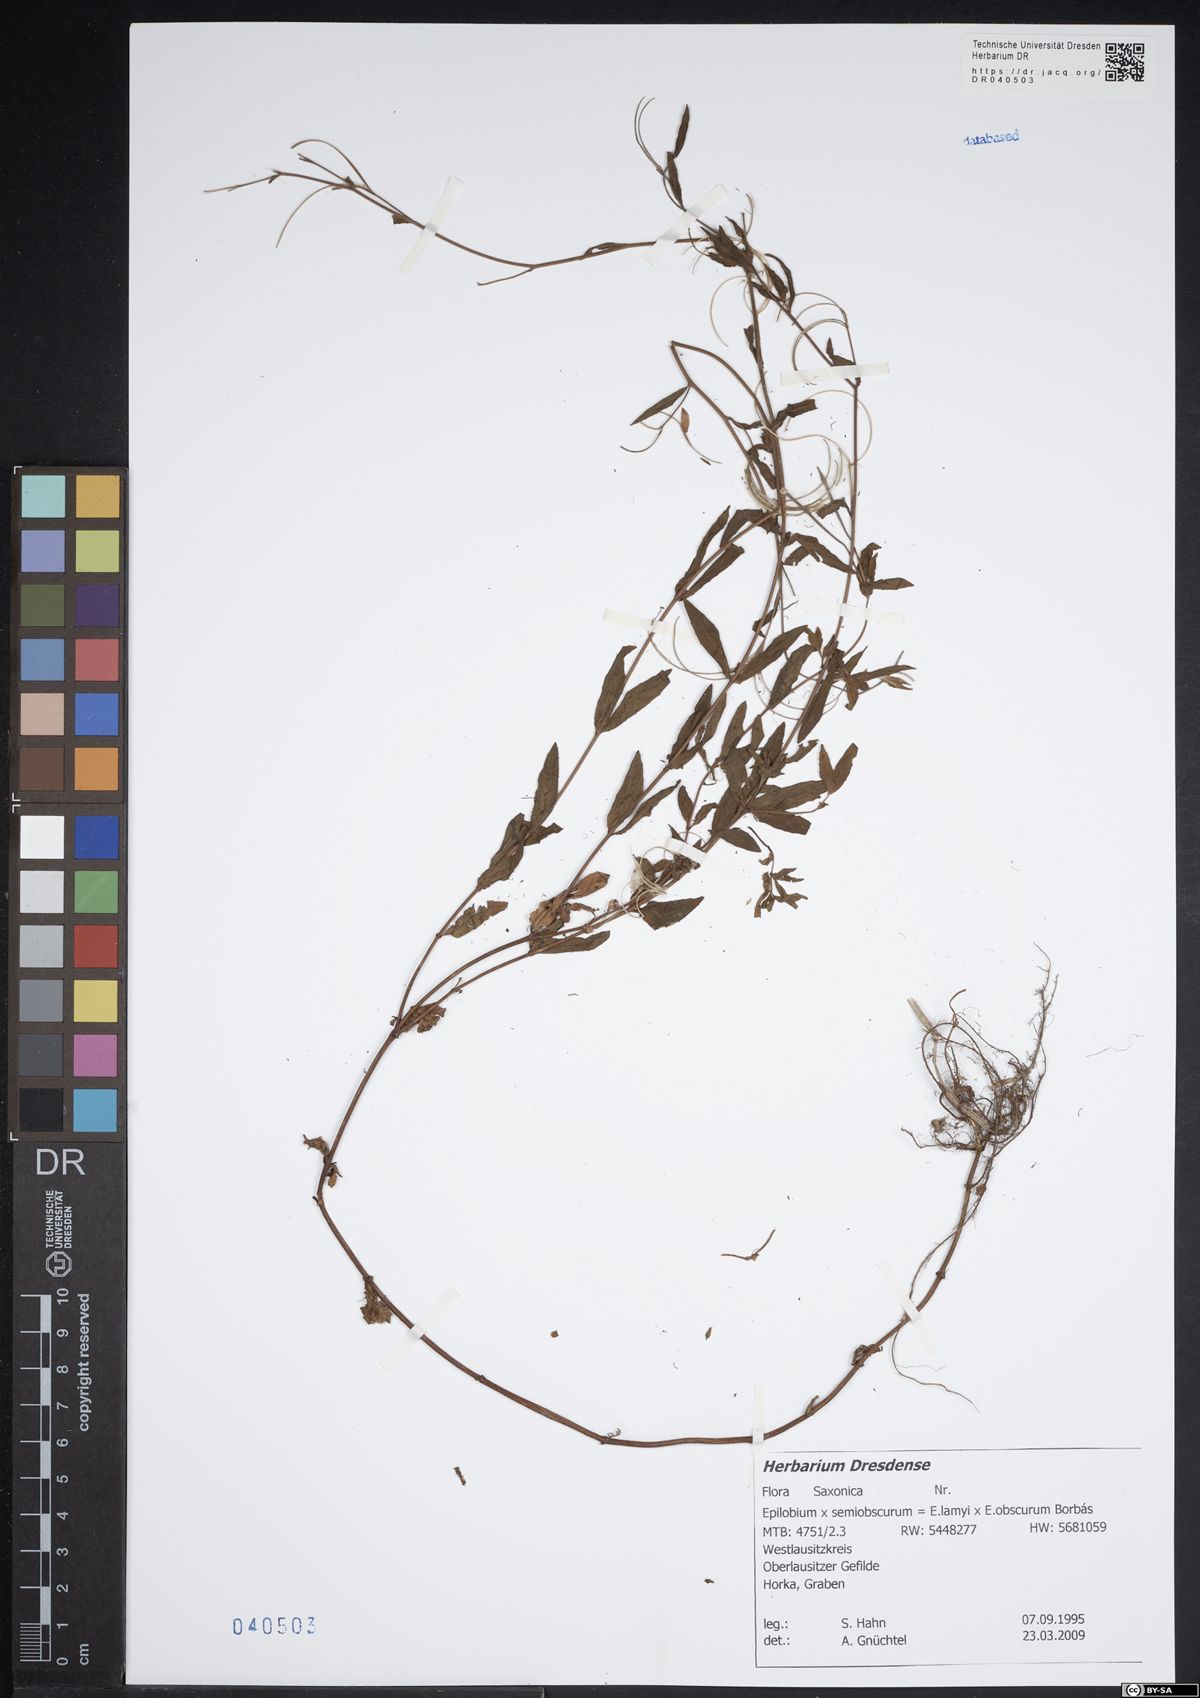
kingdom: Plantae
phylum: Tracheophyta
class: Magnoliopsida
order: Myrtales
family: Onagraceae
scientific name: Onagraceae
